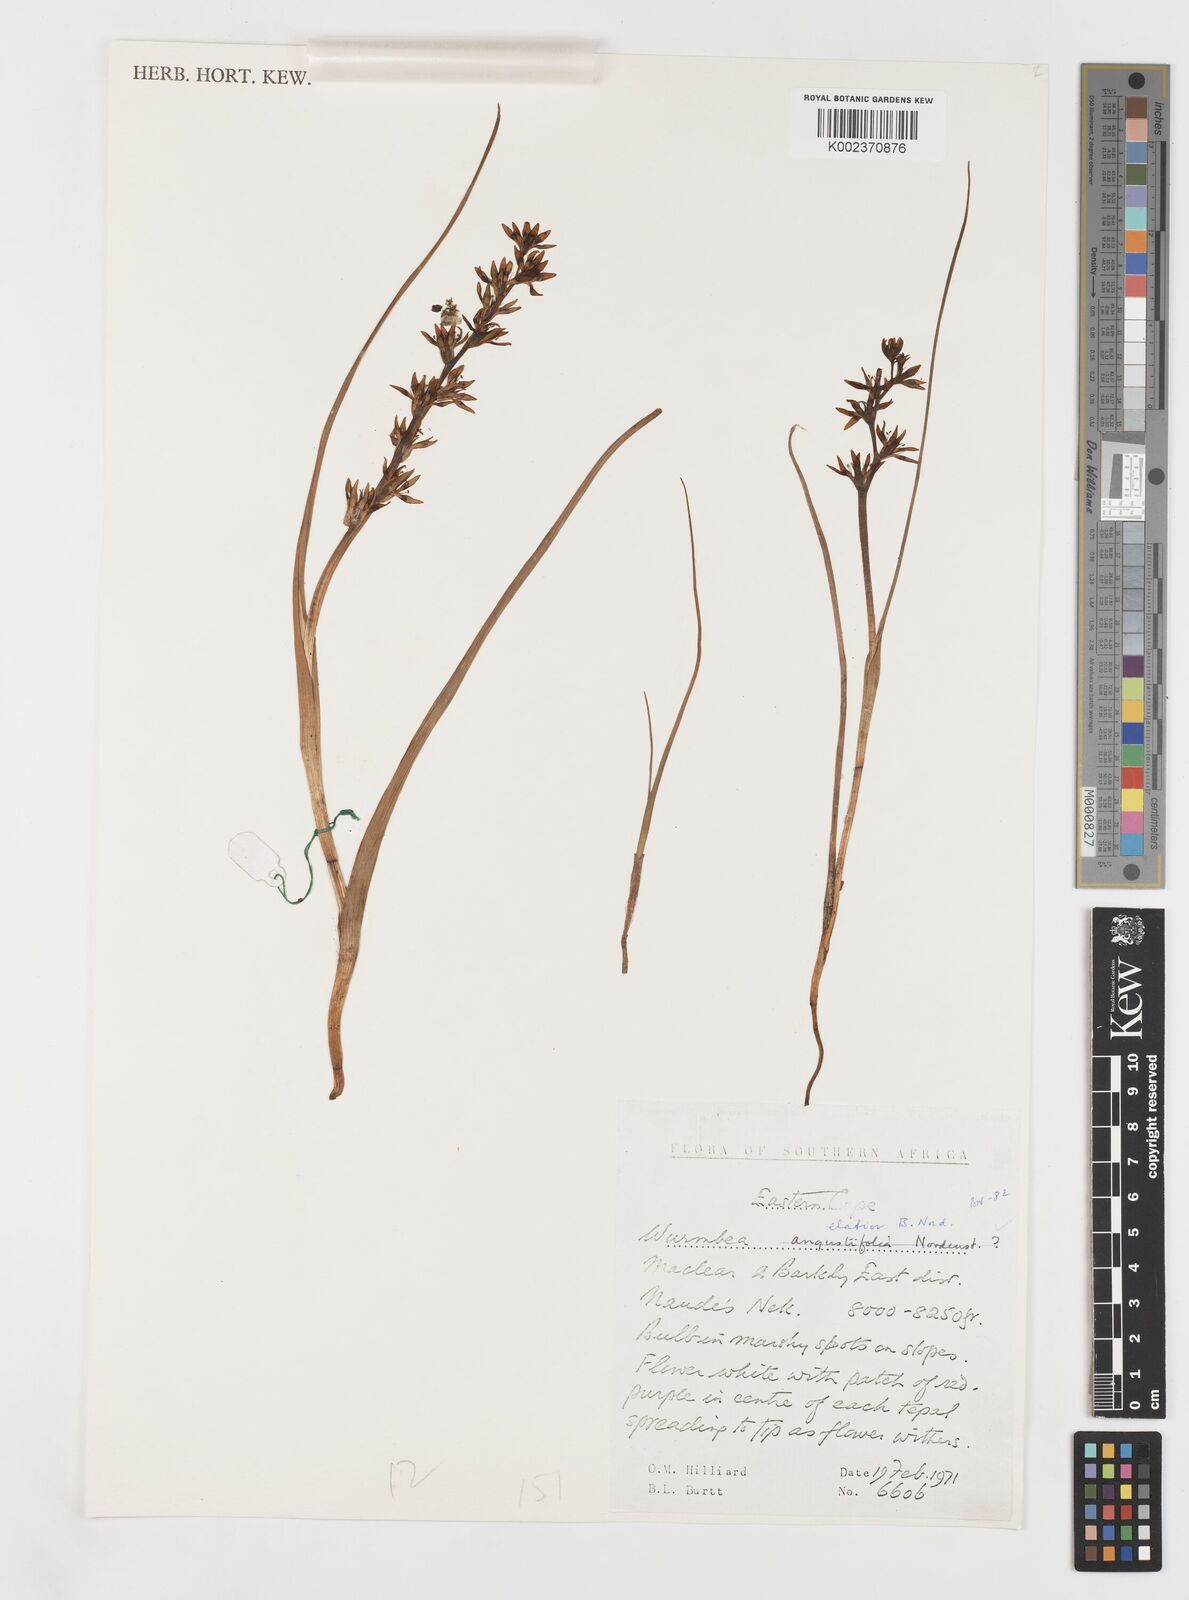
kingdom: Plantae
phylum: Tracheophyta
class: Liliopsida
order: Liliales
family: Colchicaceae
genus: Wurmbea
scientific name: Wurmbea elatior
